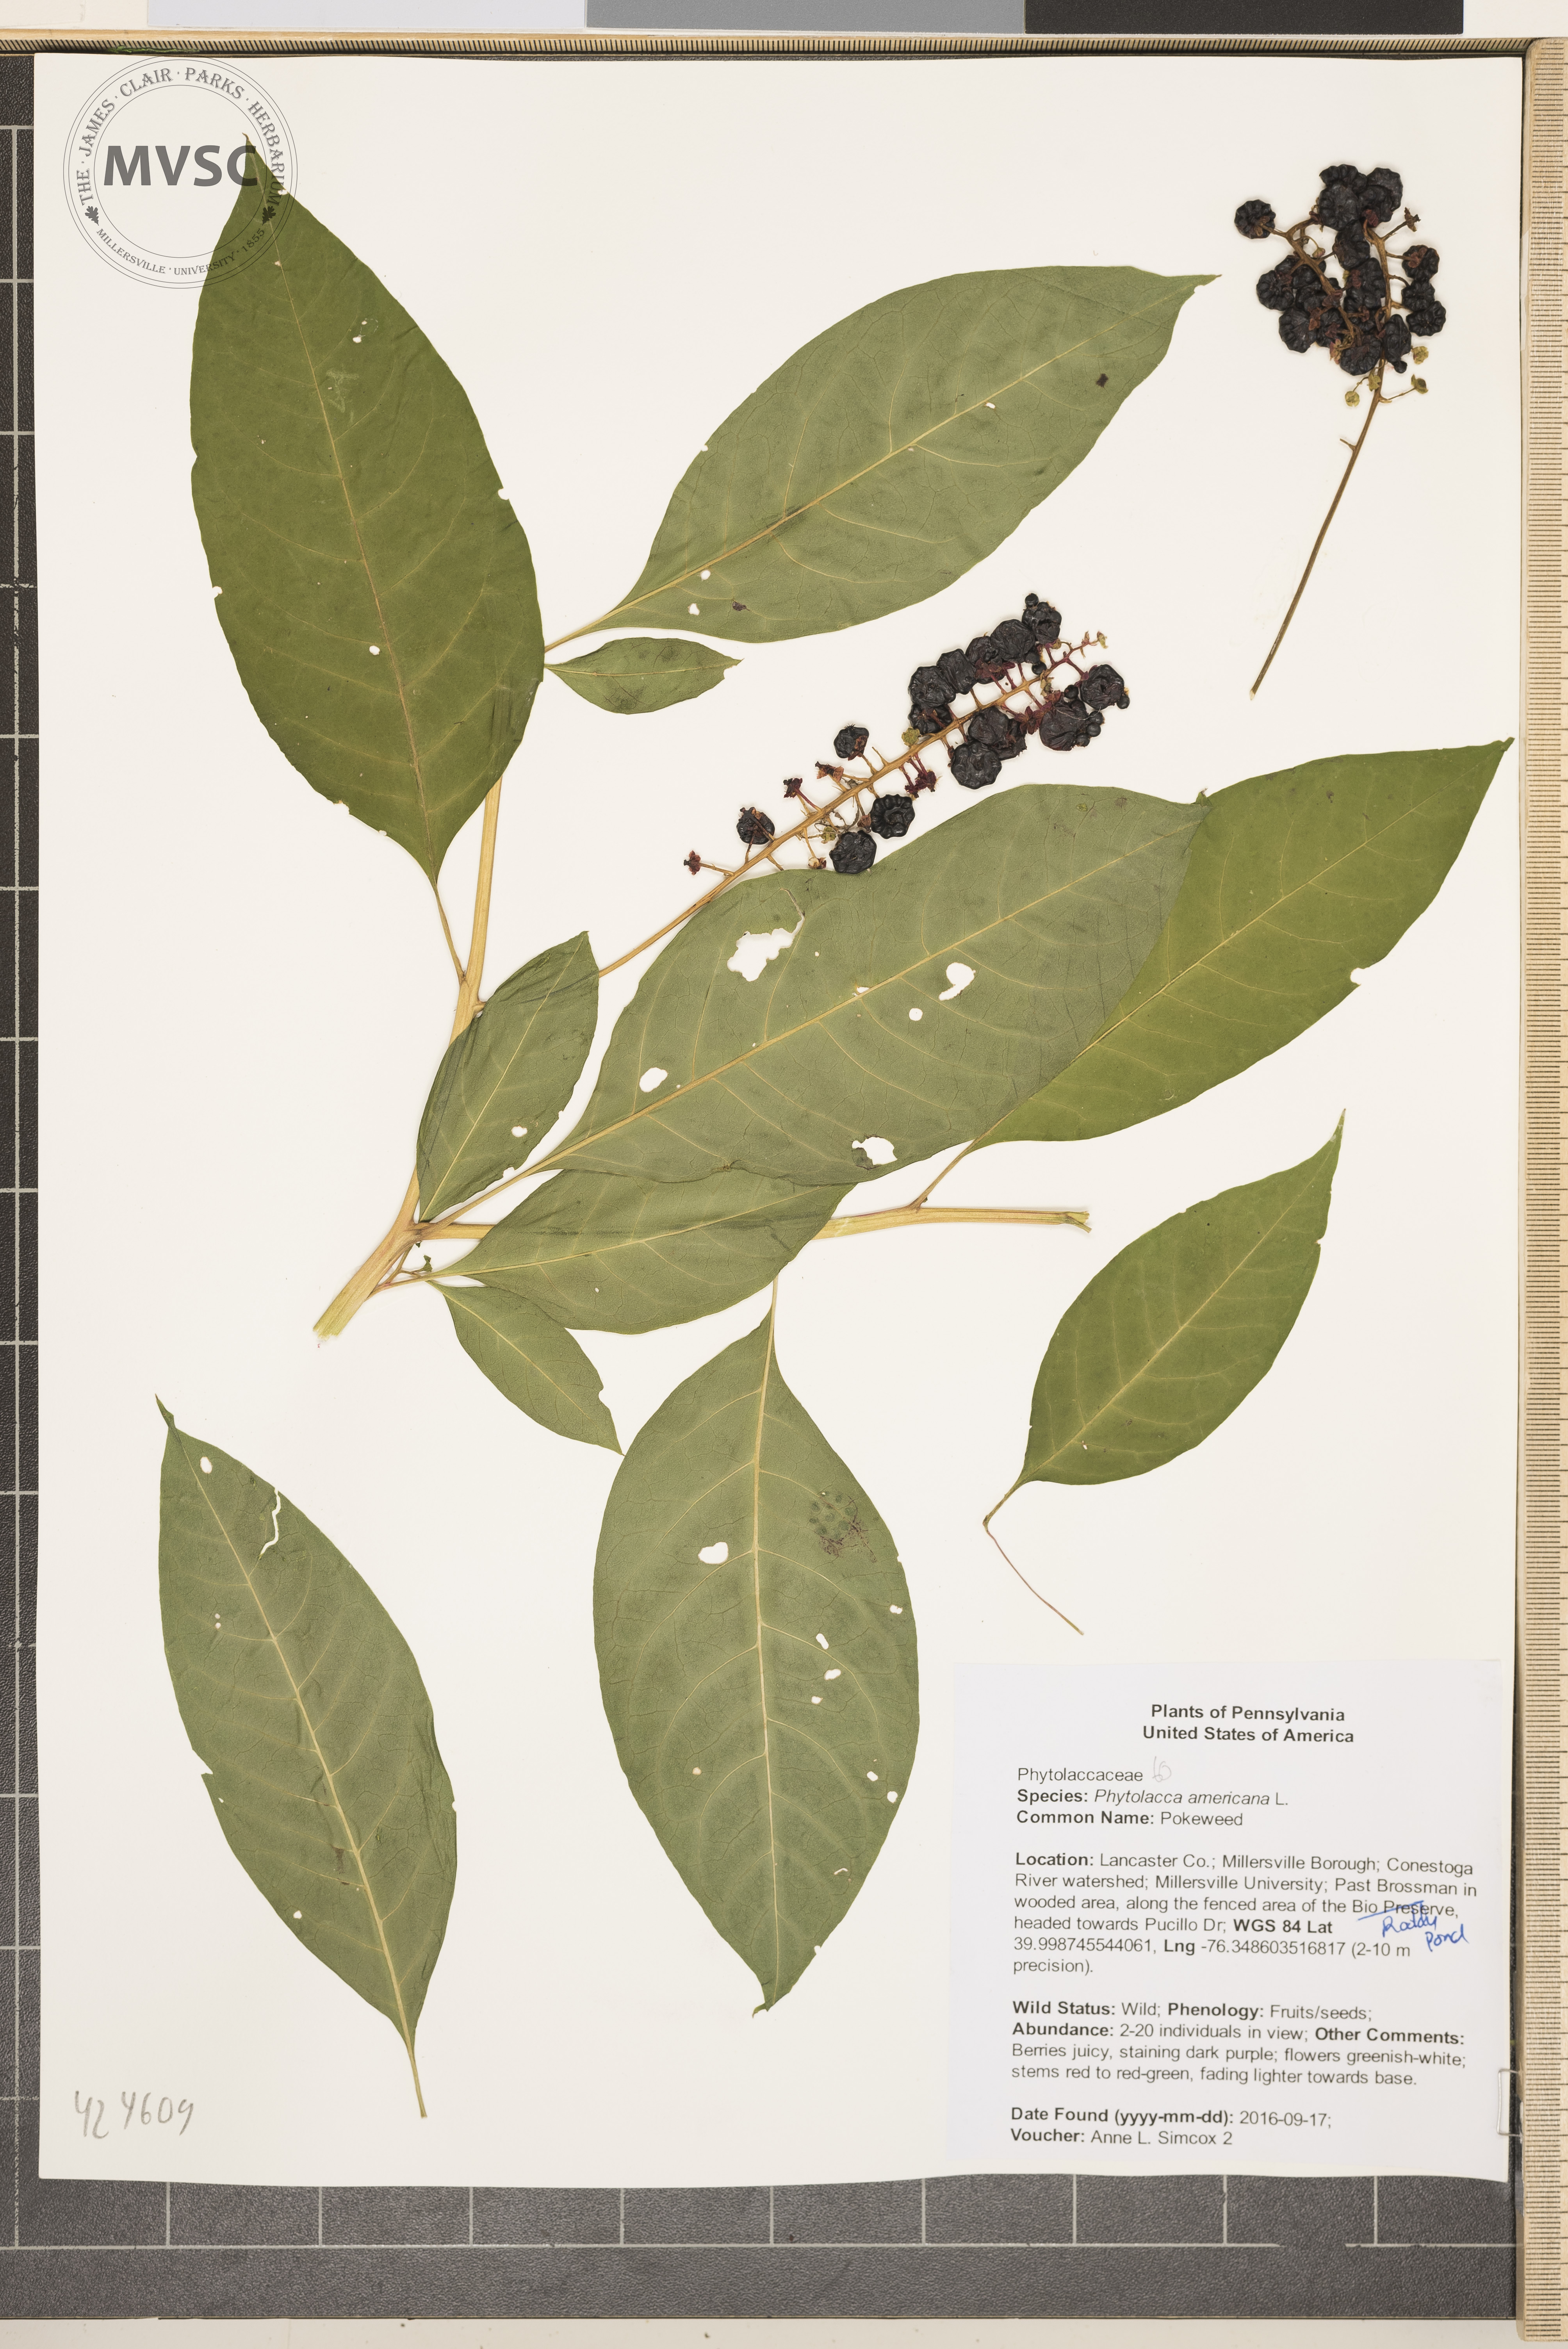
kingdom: Plantae
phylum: Tracheophyta
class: Magnoliopsida
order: Caryophyllales
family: Phytolaccaceae
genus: Phytolacca
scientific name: Phytolacca americana
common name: Pokeweed
